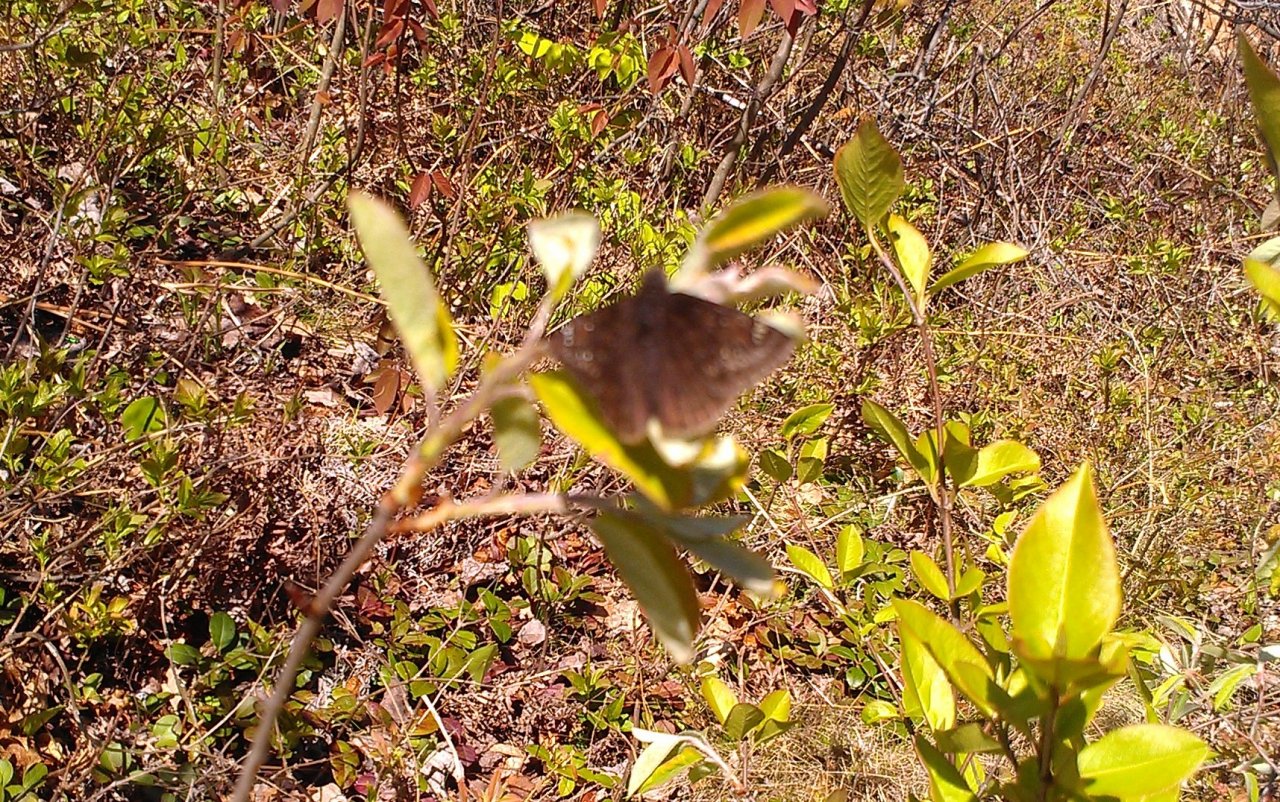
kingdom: Animalia
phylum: Arthropoda
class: Insecta
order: Lepidoptera
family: Hesperiidae
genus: Gesta
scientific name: Gesta
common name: Juvenal's Duskywing
